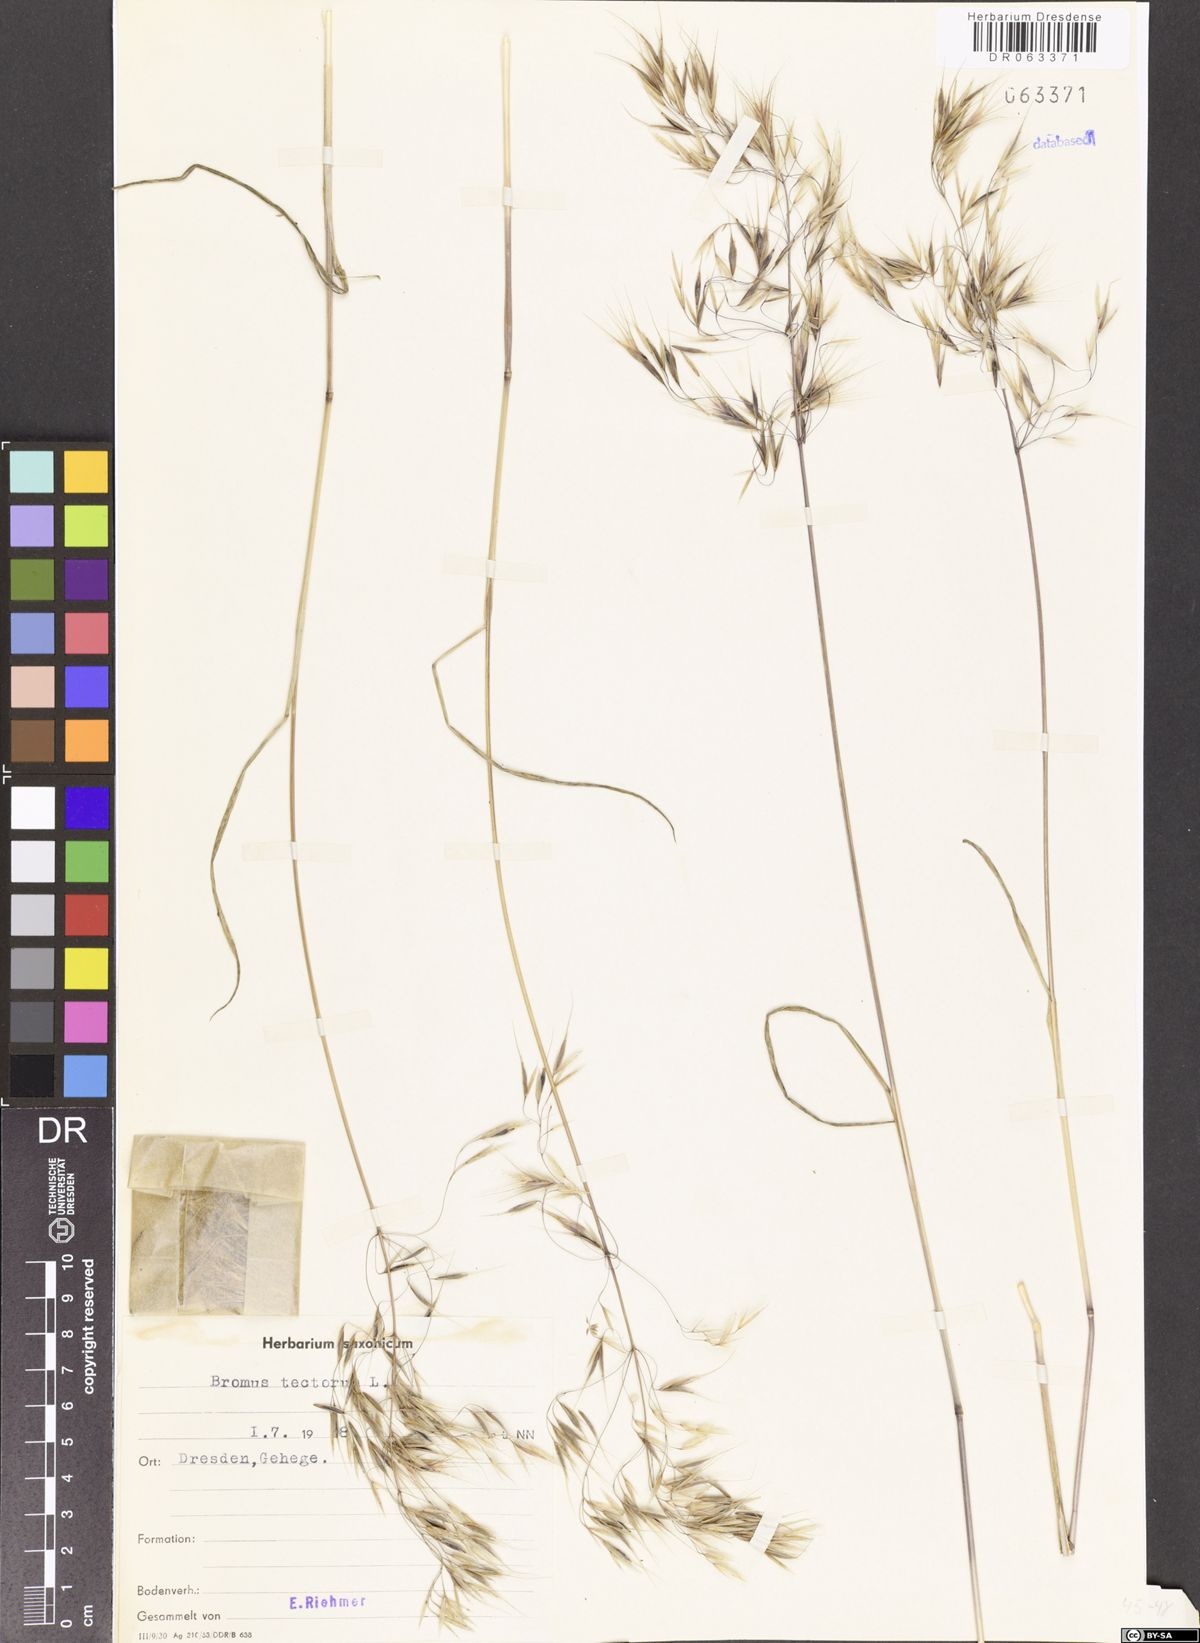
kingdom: Plantae
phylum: Tracheophyta
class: Liliopsida
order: Poales
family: Poaceae
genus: Bromus
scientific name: Bromus tectorum
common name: Cheatgrass
